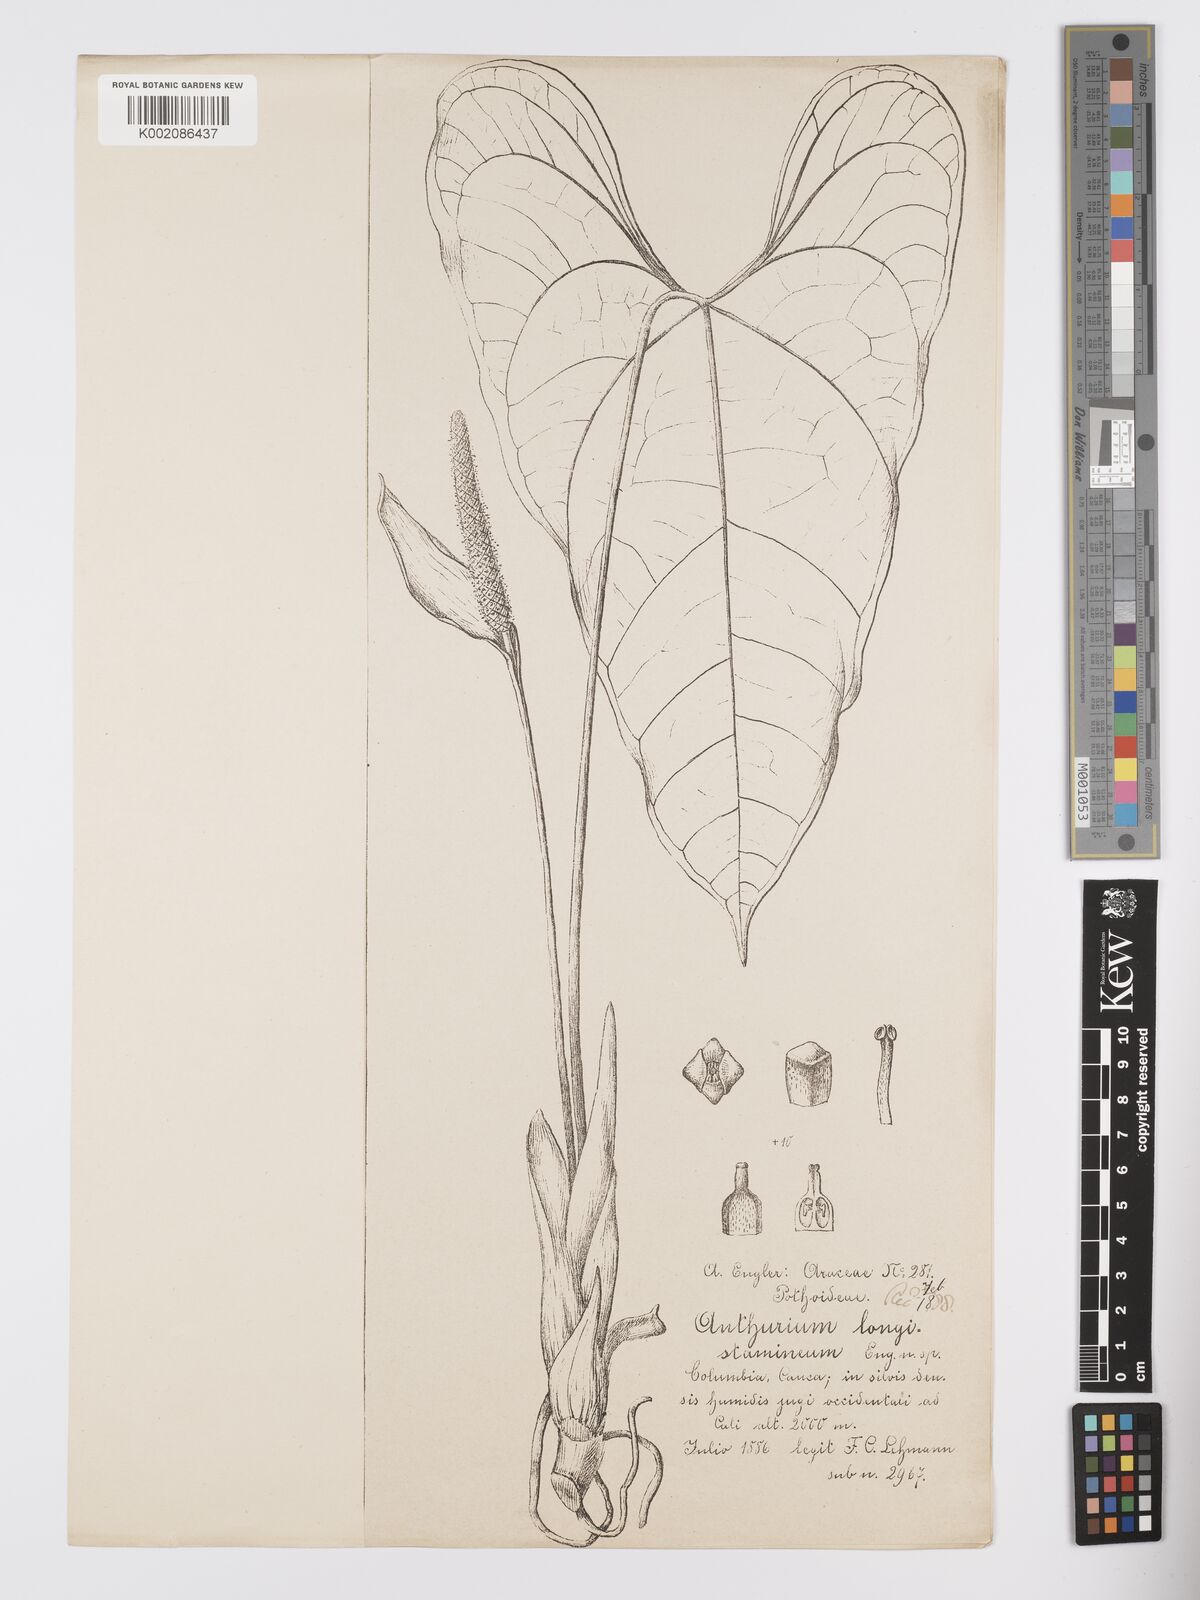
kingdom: Plantae
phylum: Tracheophyta
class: Liliopsida
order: Alismatales
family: Araceae
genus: Anthurium
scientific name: Anthurium longistamineum
